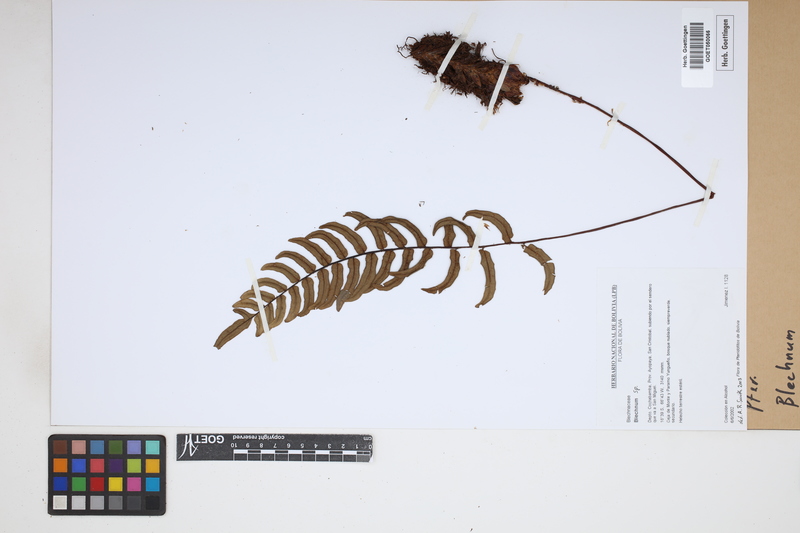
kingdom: Plantae
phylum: Tracheophyta
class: Polypodiopsida
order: Polypodiales
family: Blechnaceae
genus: Blechnum
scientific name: Blechnum
